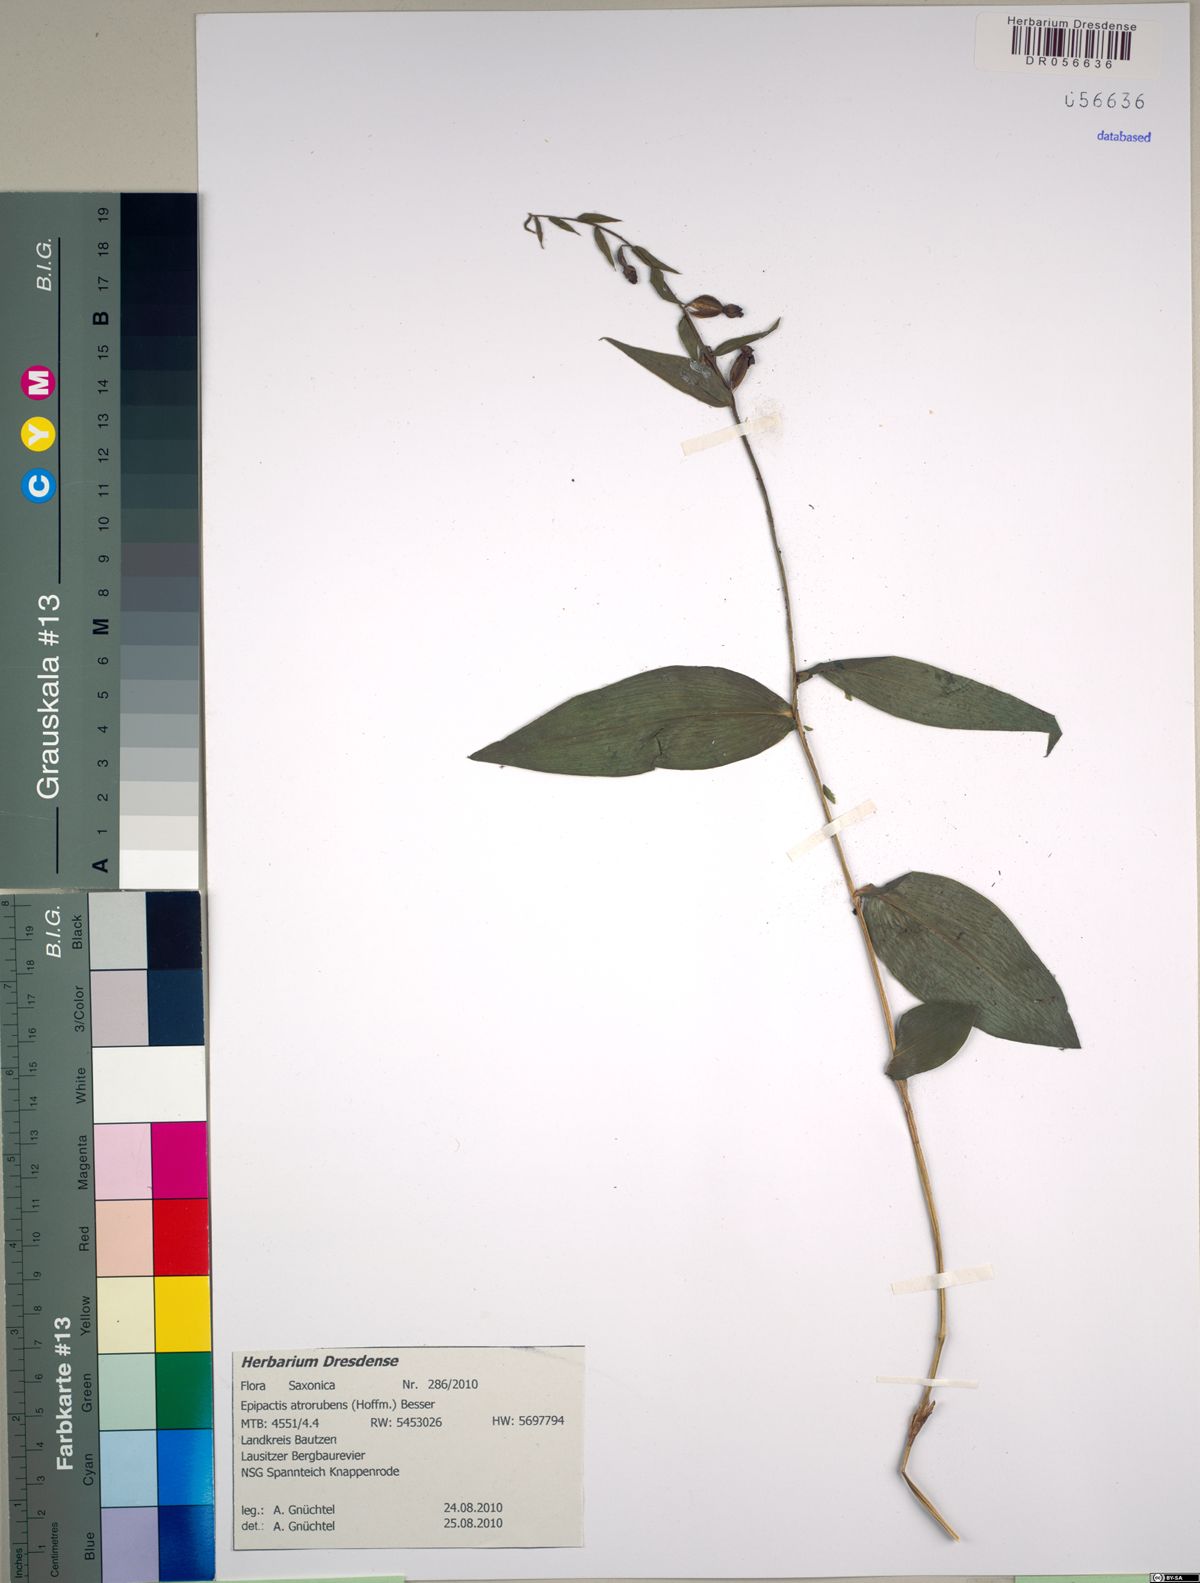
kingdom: Plantae
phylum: Tracheophyta
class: Liliopsida
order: Asparagales
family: Orchidaceae
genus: Epipactis
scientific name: Epipactis atrorubens
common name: Dark-red helleborine
